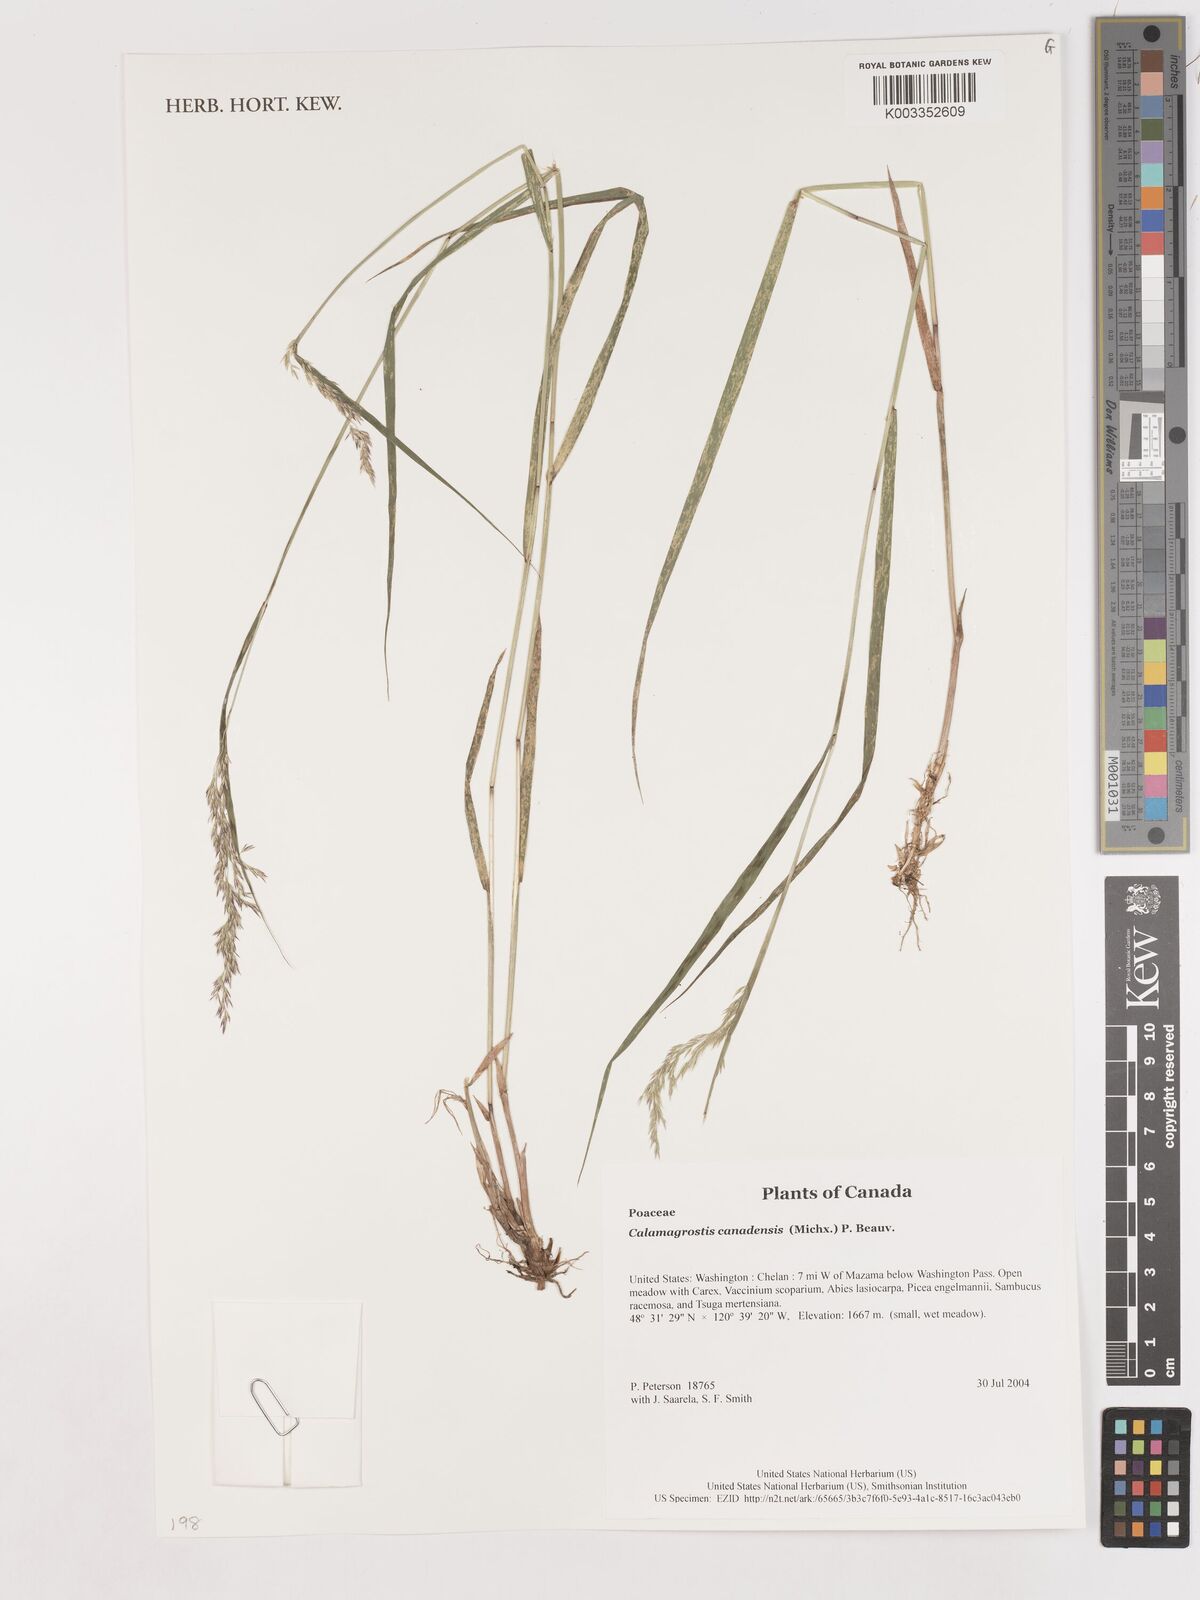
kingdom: Plantae
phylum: Tracheophyta
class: Liliopsida
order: Poales
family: Poaceae
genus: Calamagrostis
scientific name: Calamagrostis canadensis
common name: Canada bluejoint
